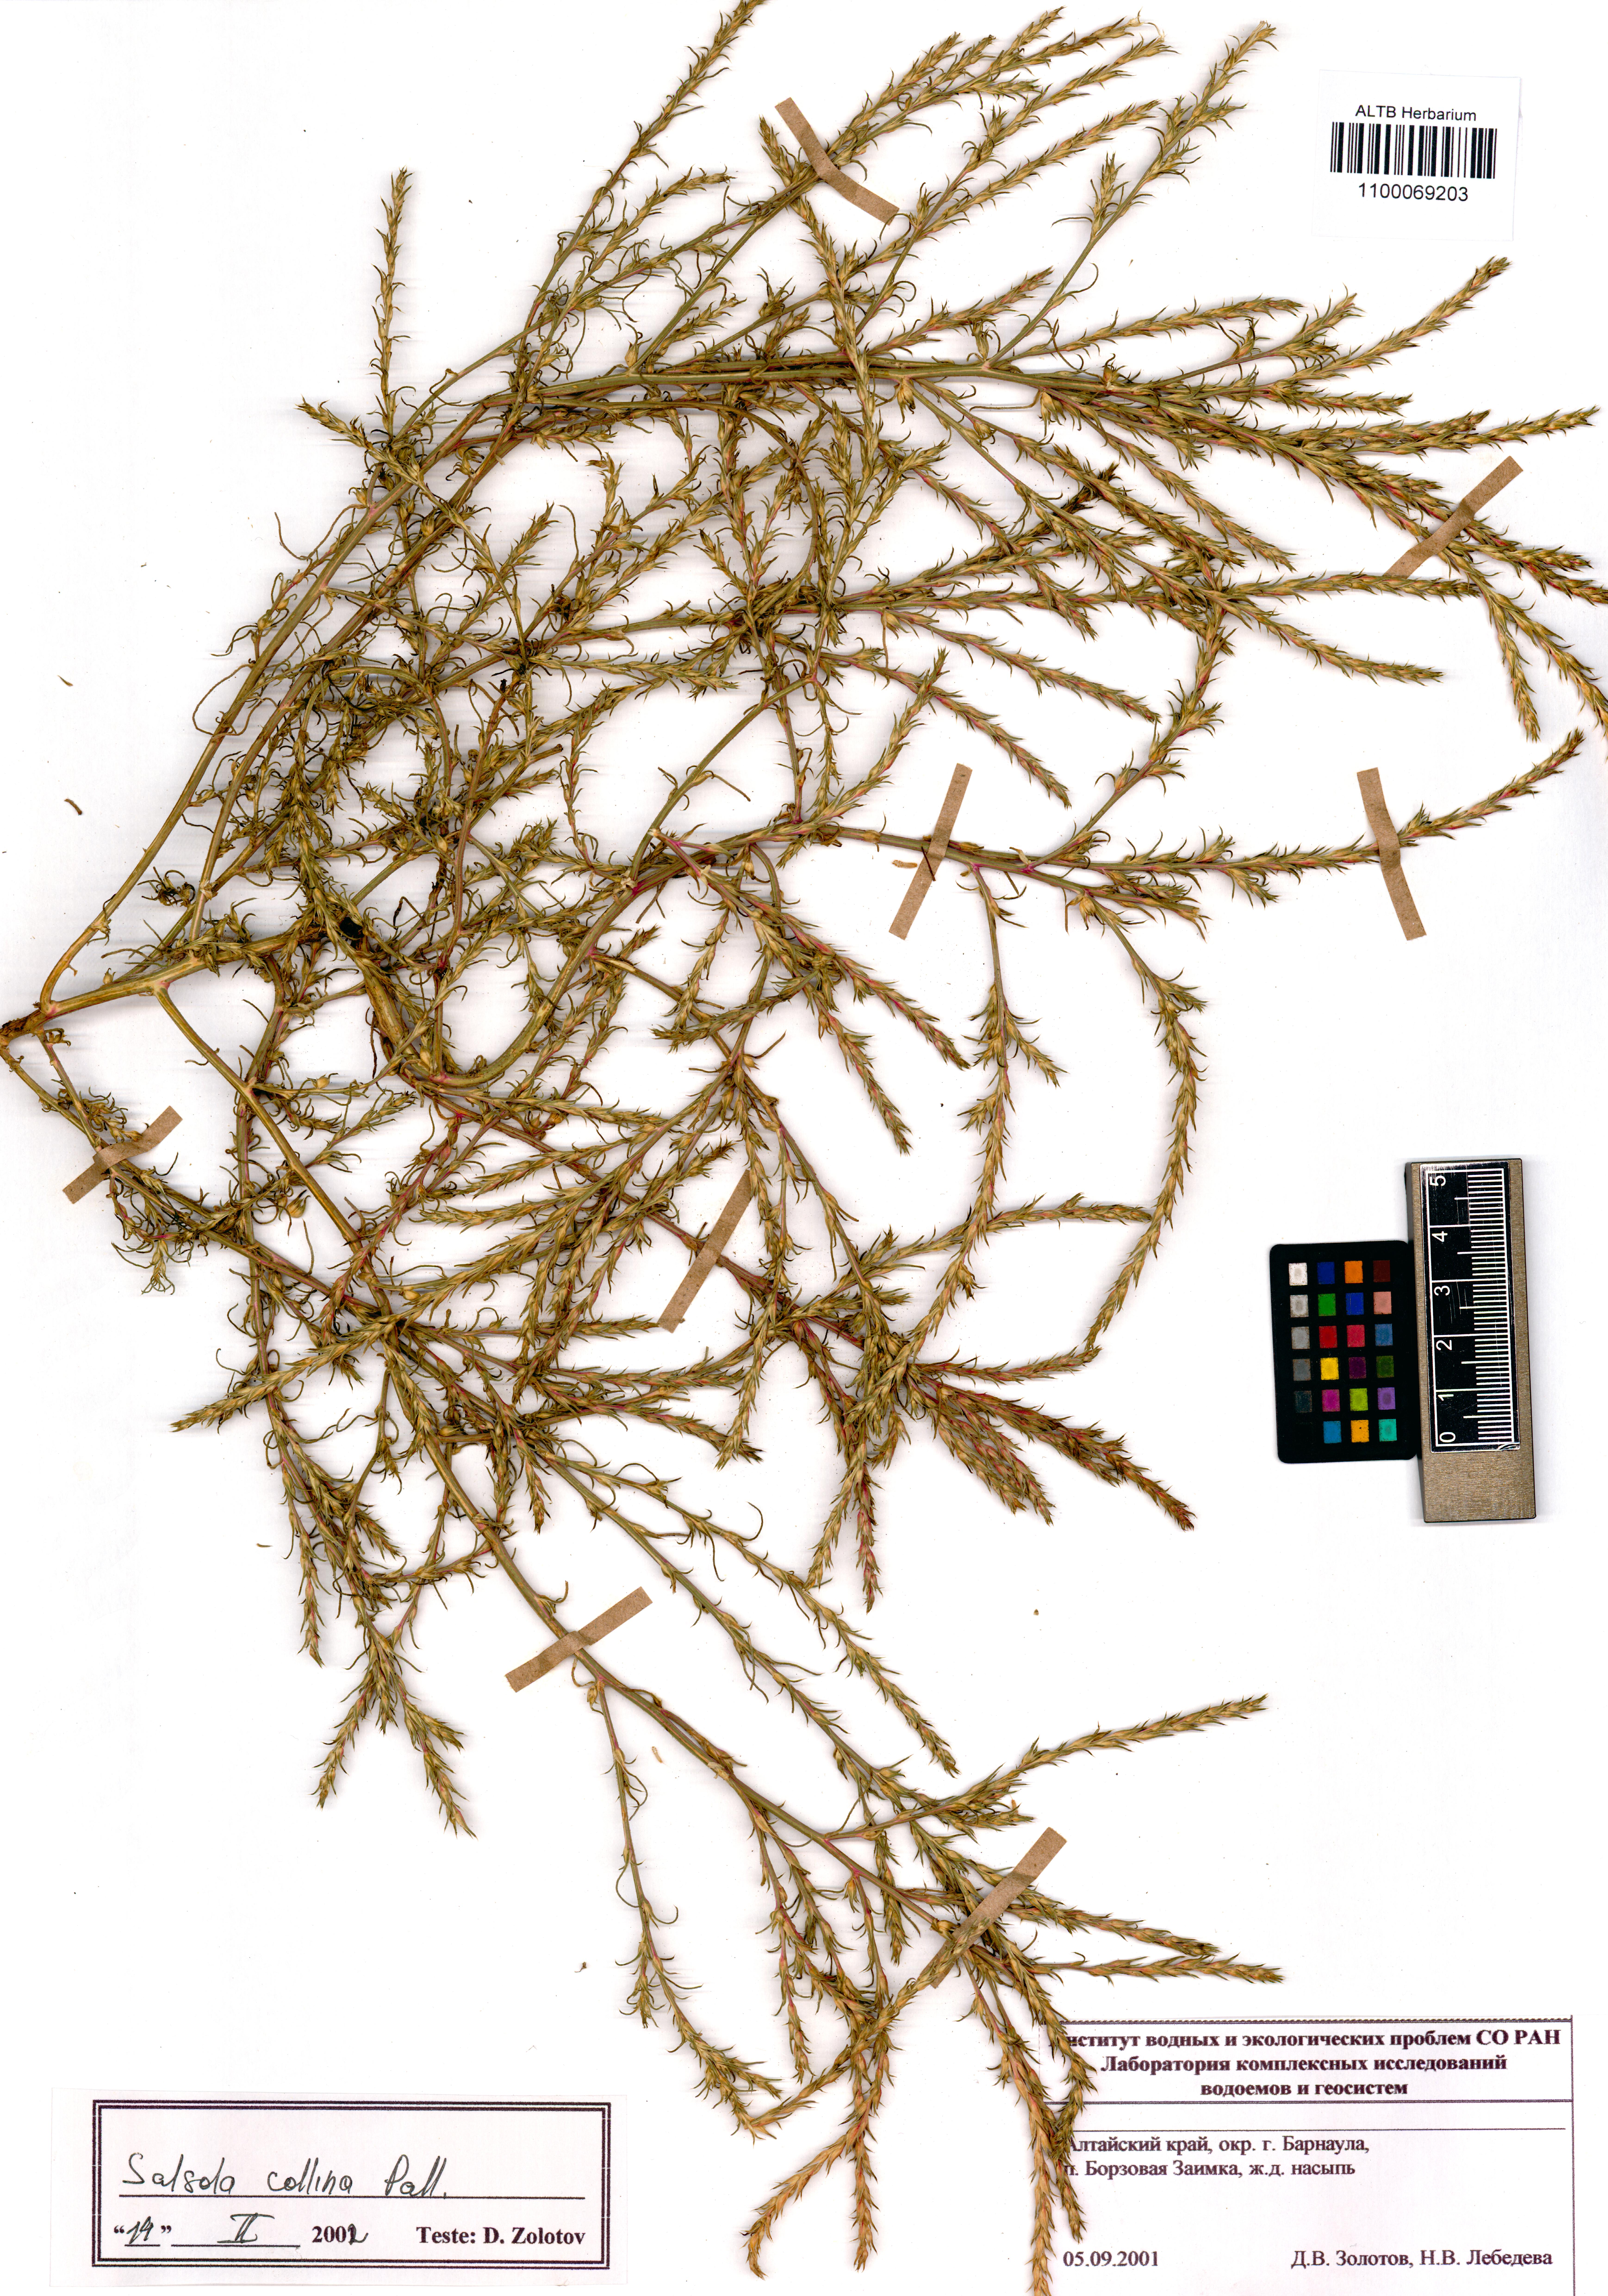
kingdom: Plantae
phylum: Tracheophyta
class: Magnoliopsida
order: Caryophyllales
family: Amaranthaceae
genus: Salsola
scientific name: Salsola collina
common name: Tumbleweed
